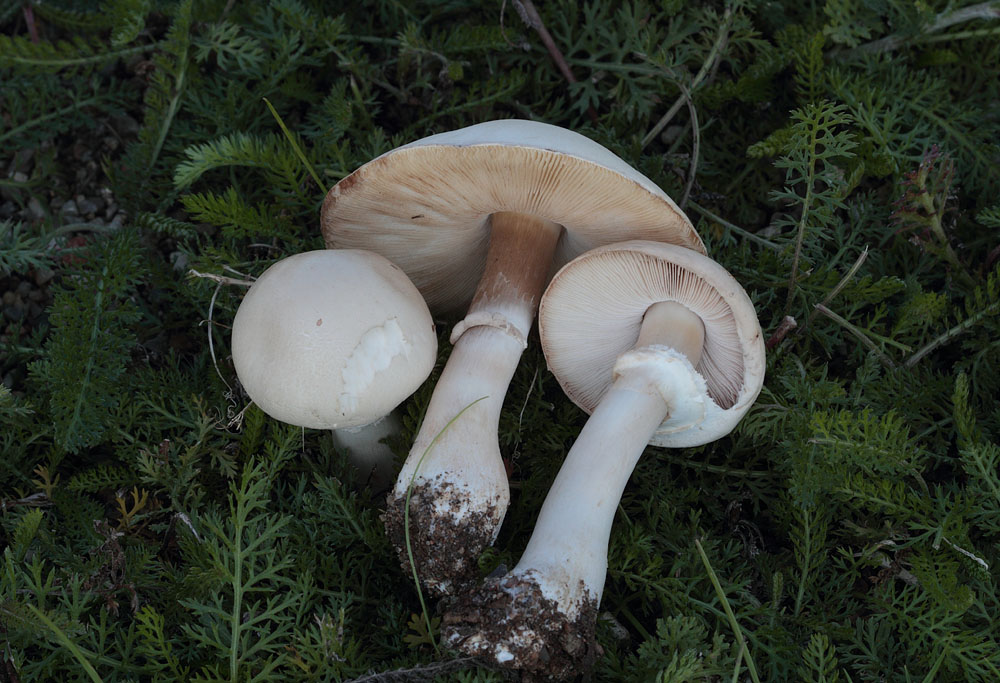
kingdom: Fungi
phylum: Basidiomycota
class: Agaricomycetes
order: Agaricales
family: Agaricaceae
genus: Leucoagaricus
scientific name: Leucoagaricus leucothites
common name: rosabladet silkehat
